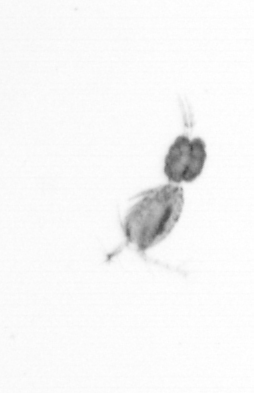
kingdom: Animalia
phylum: Arthropoda
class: Copepoda
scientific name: Copepoda
